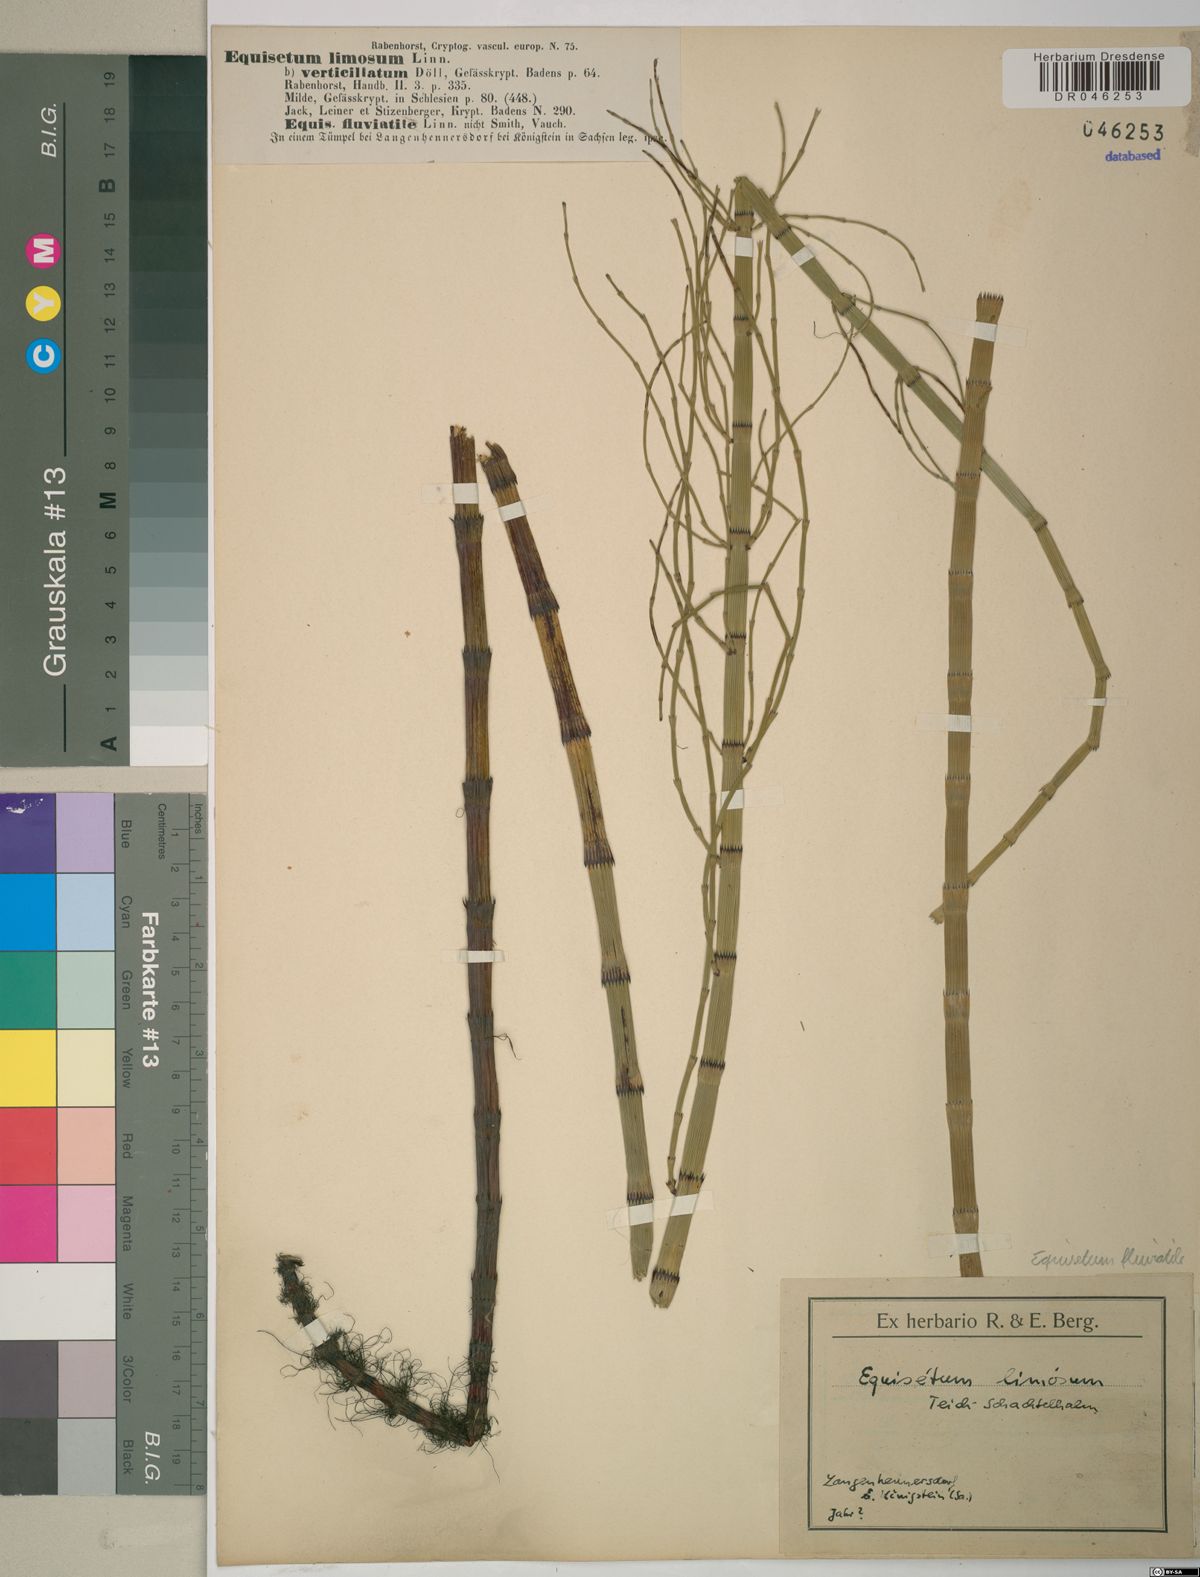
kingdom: Plantae
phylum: Tracheophyta
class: Polypodiopsida
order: Equisetales
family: Equisetaceae
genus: Equisetum
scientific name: Equisetum fluviatile
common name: Water horsetail
